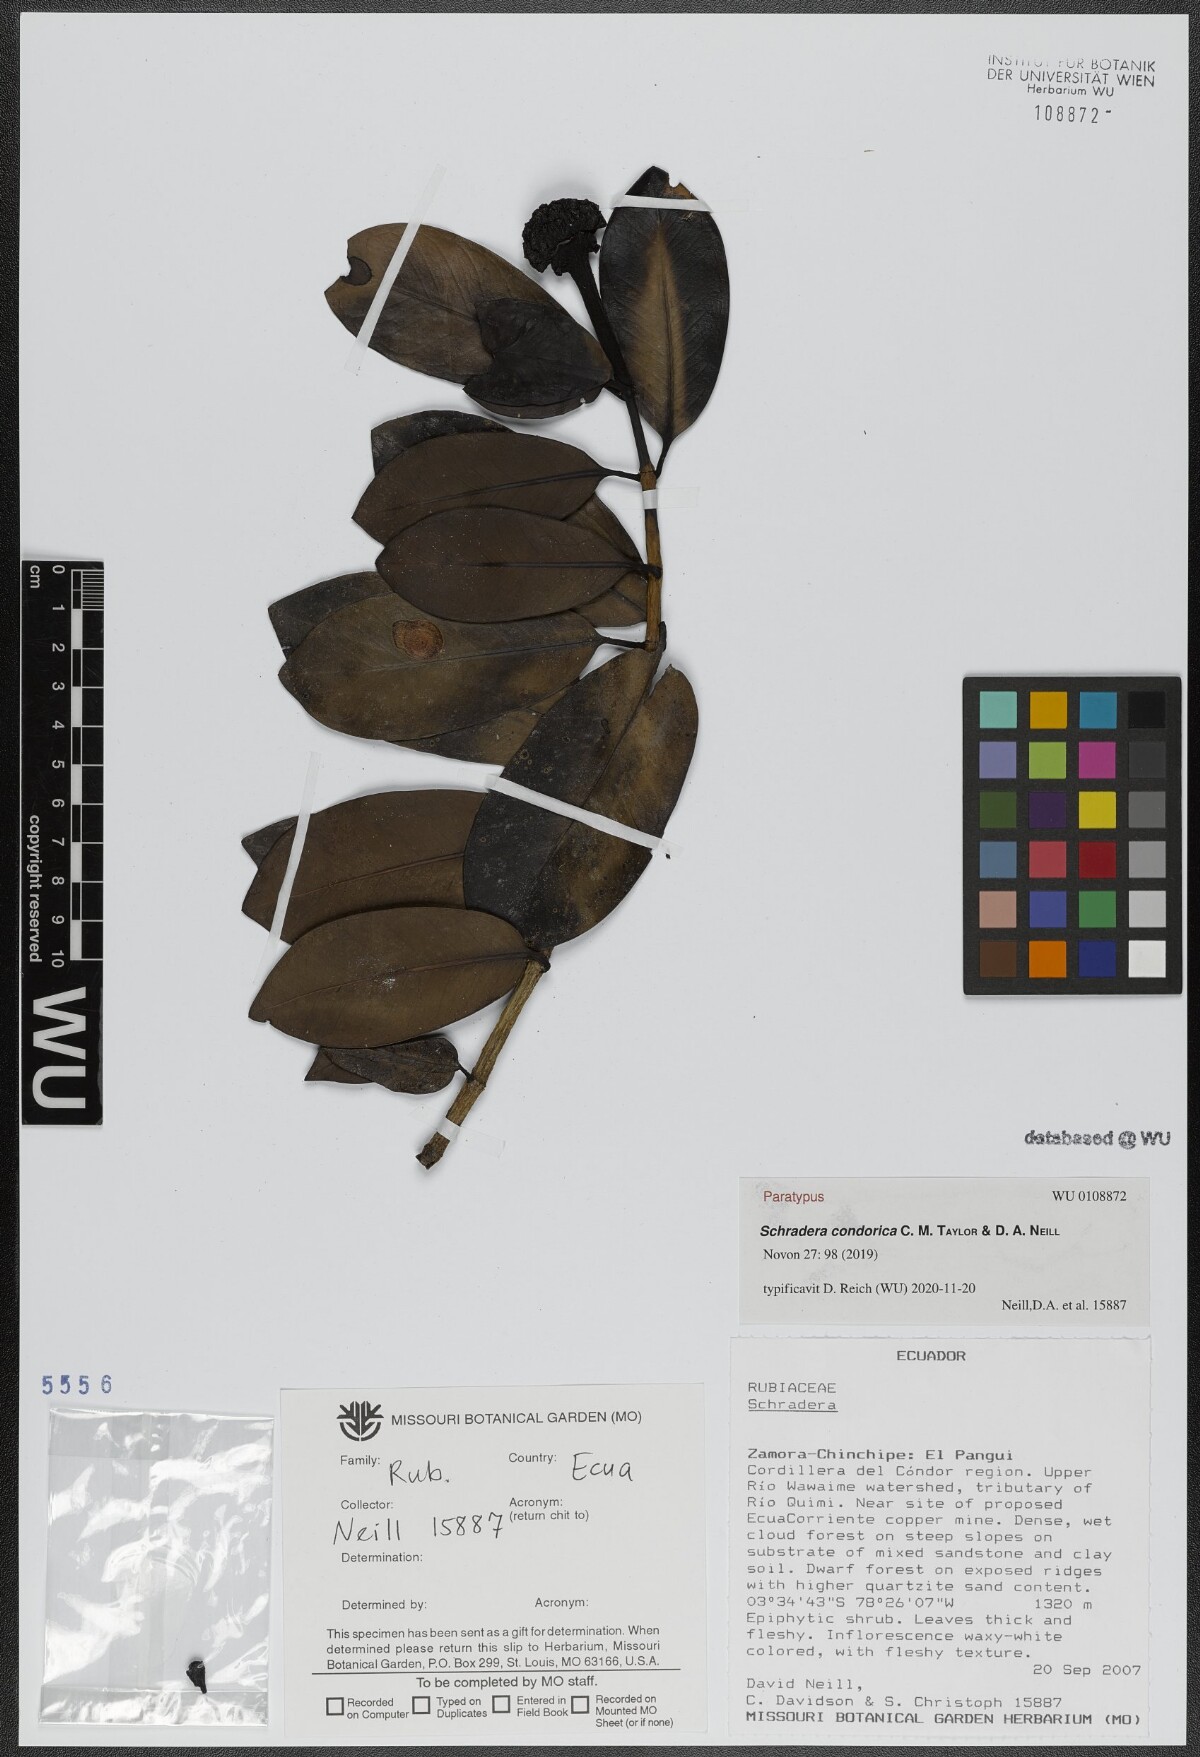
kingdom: Plantae
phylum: Tracheophyta
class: Magnoliopsida
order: Gentianales
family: Rubiaceae
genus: Schradera
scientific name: Schradera condorica
